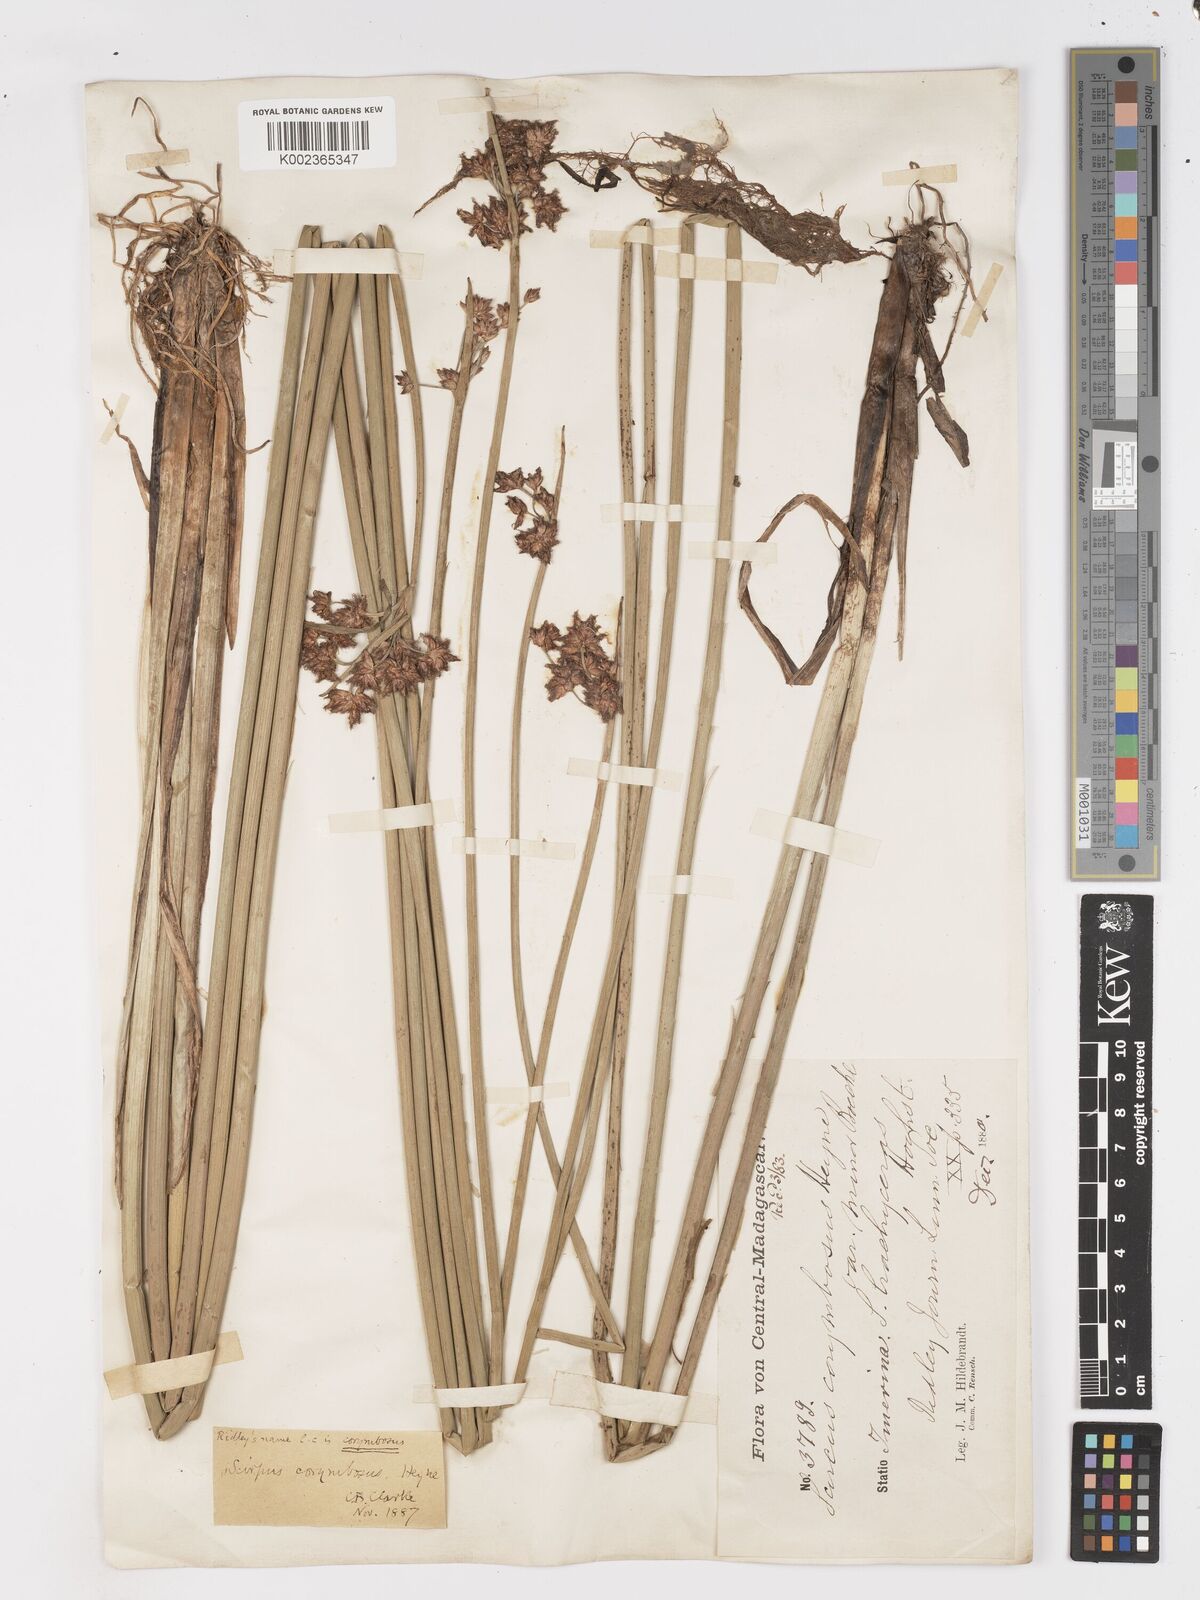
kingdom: Plantae
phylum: Tracheophyta
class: Liliopsida
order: Poales
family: Cyperaceae
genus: Schoenoplectiella
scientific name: Schoenoplectiella brachyceras
